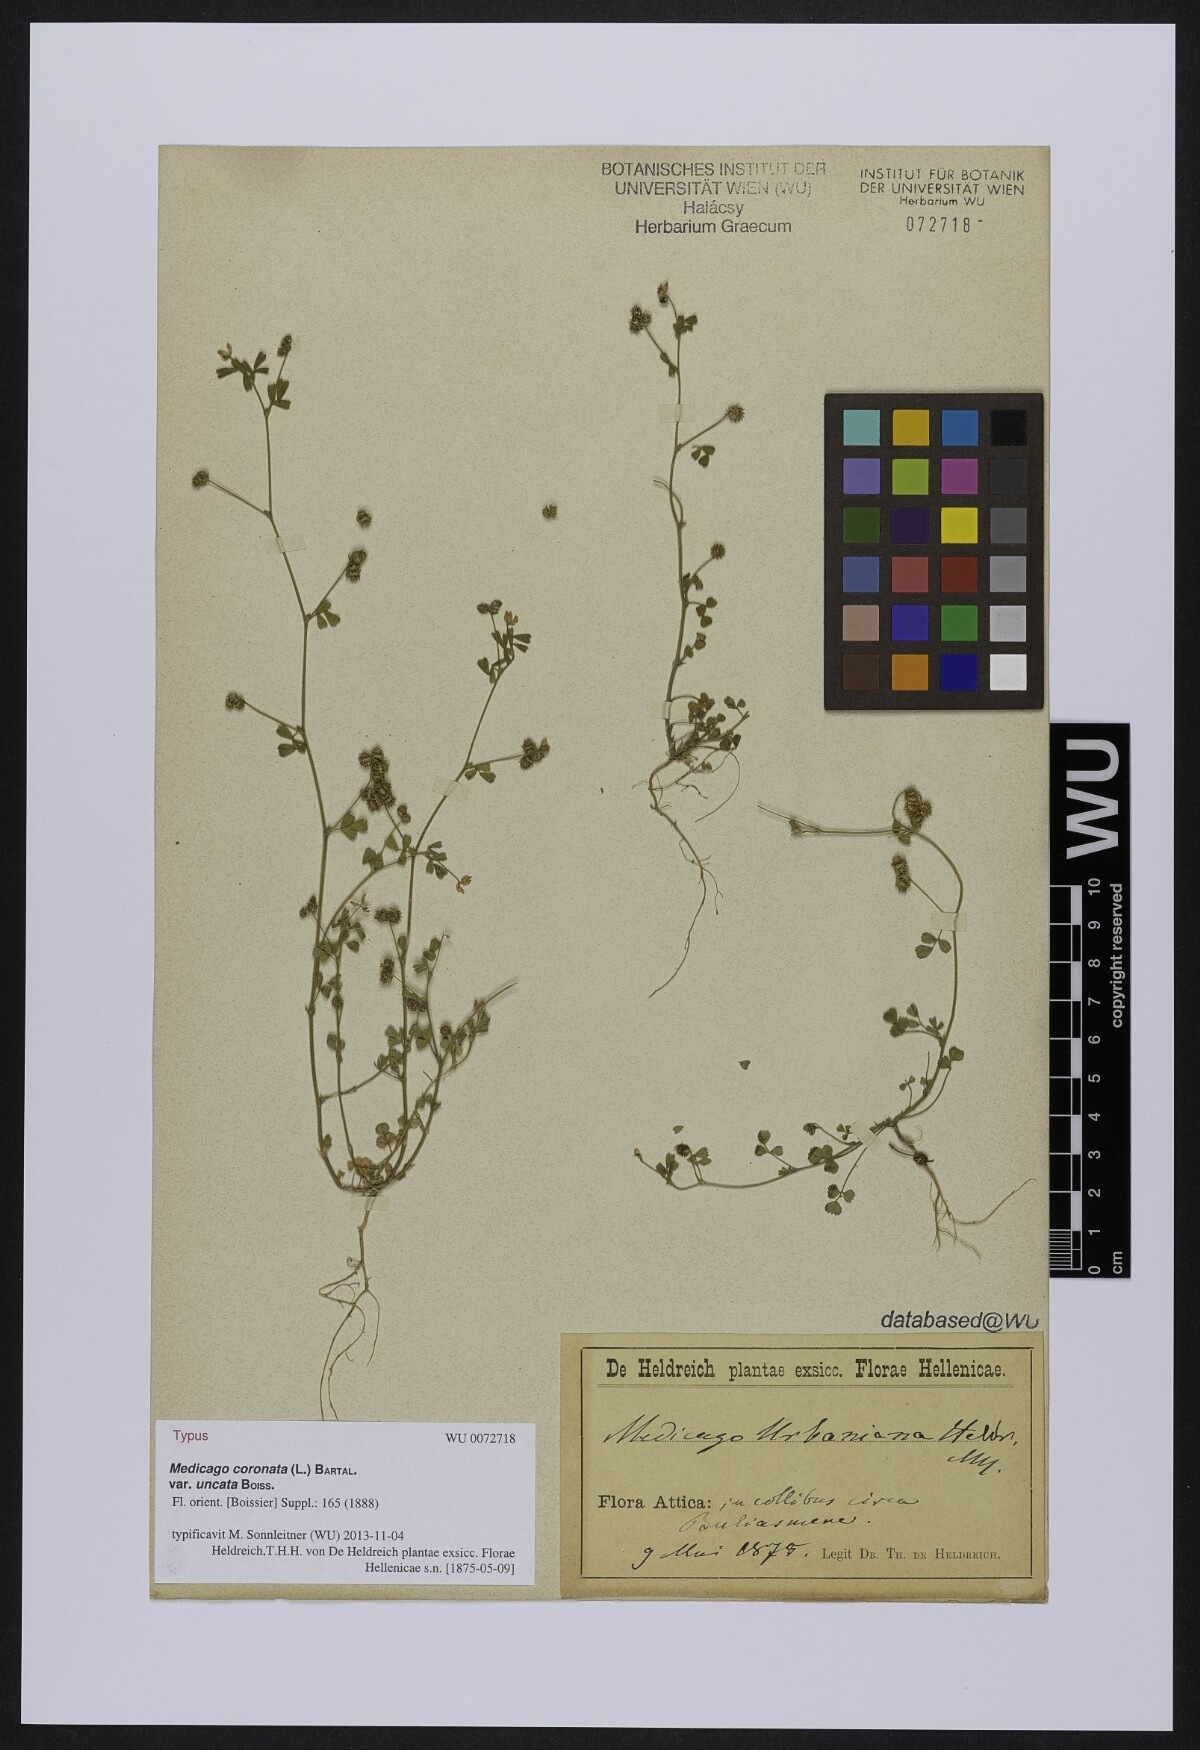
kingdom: Plantae
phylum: Tracheophyta
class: Magnoliopsida
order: Fabales
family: Fabaceae
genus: Medicago
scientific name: Medicago coronata
